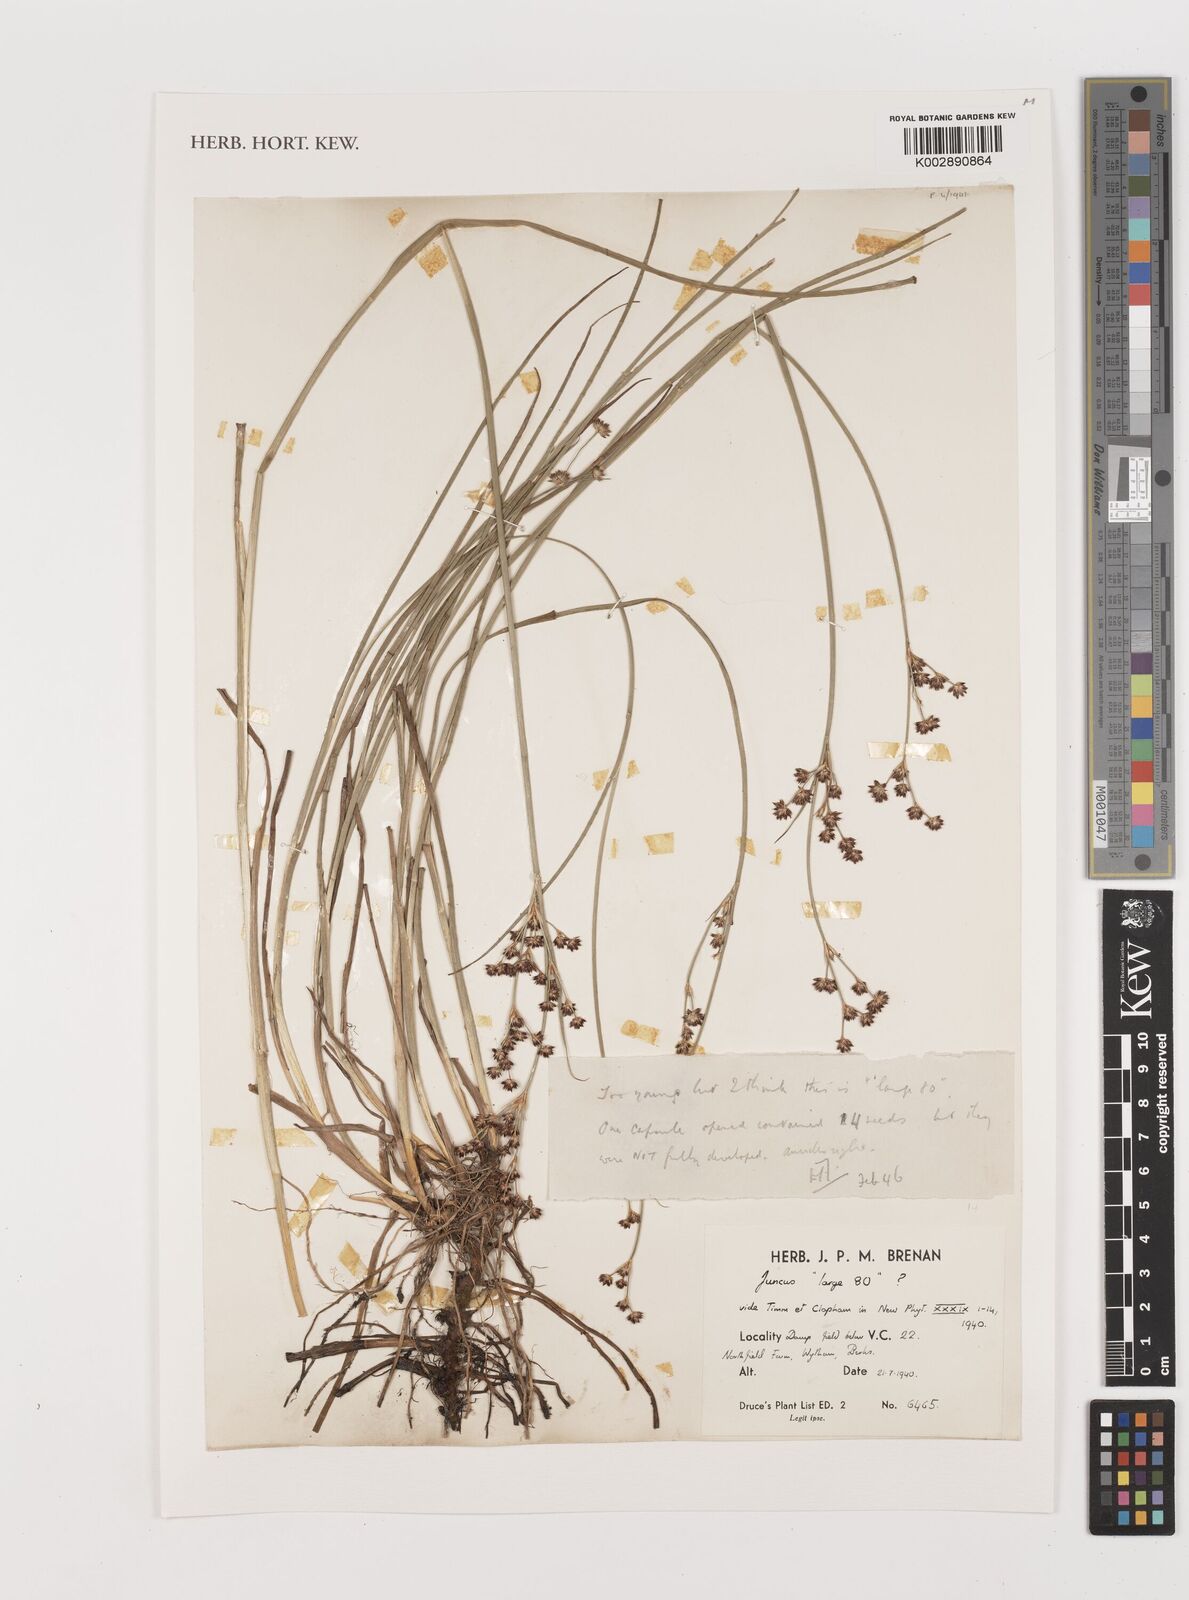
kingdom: Plantae
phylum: Tracheophyta
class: Liliopsida
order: Poales
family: Juncaceae
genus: Juncus
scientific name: Juncus
